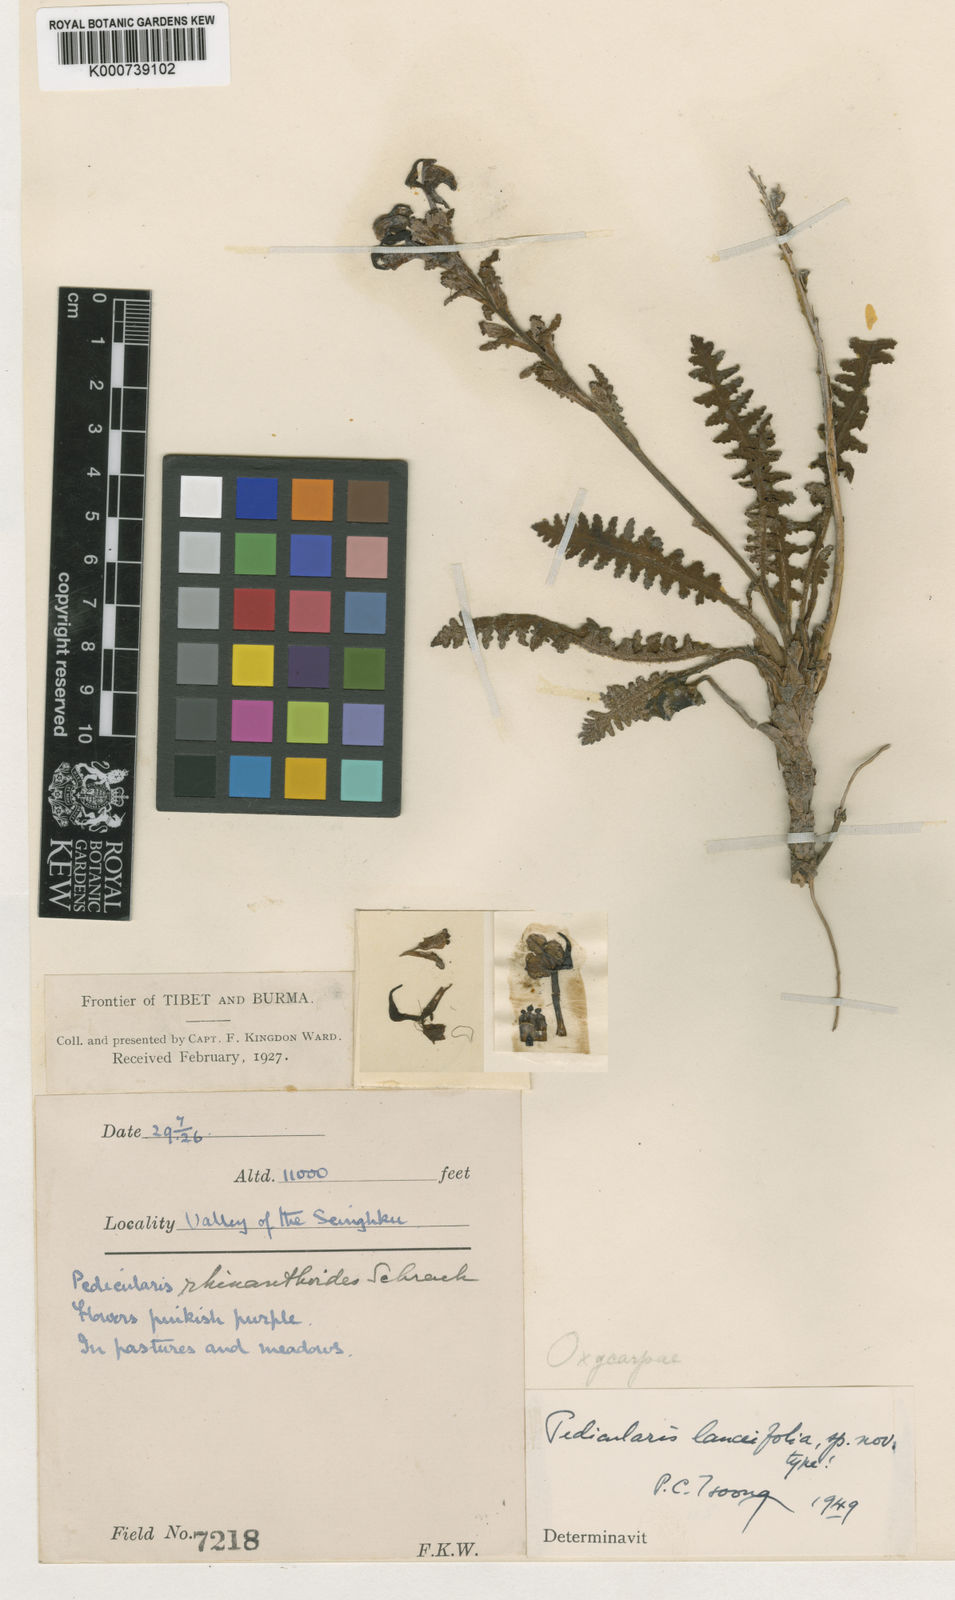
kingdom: Plantae
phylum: Tracheophyta
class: Magnoliopsida
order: Lamiales
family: Orobanchaceae
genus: Pedicularis
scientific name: Pedicularis
